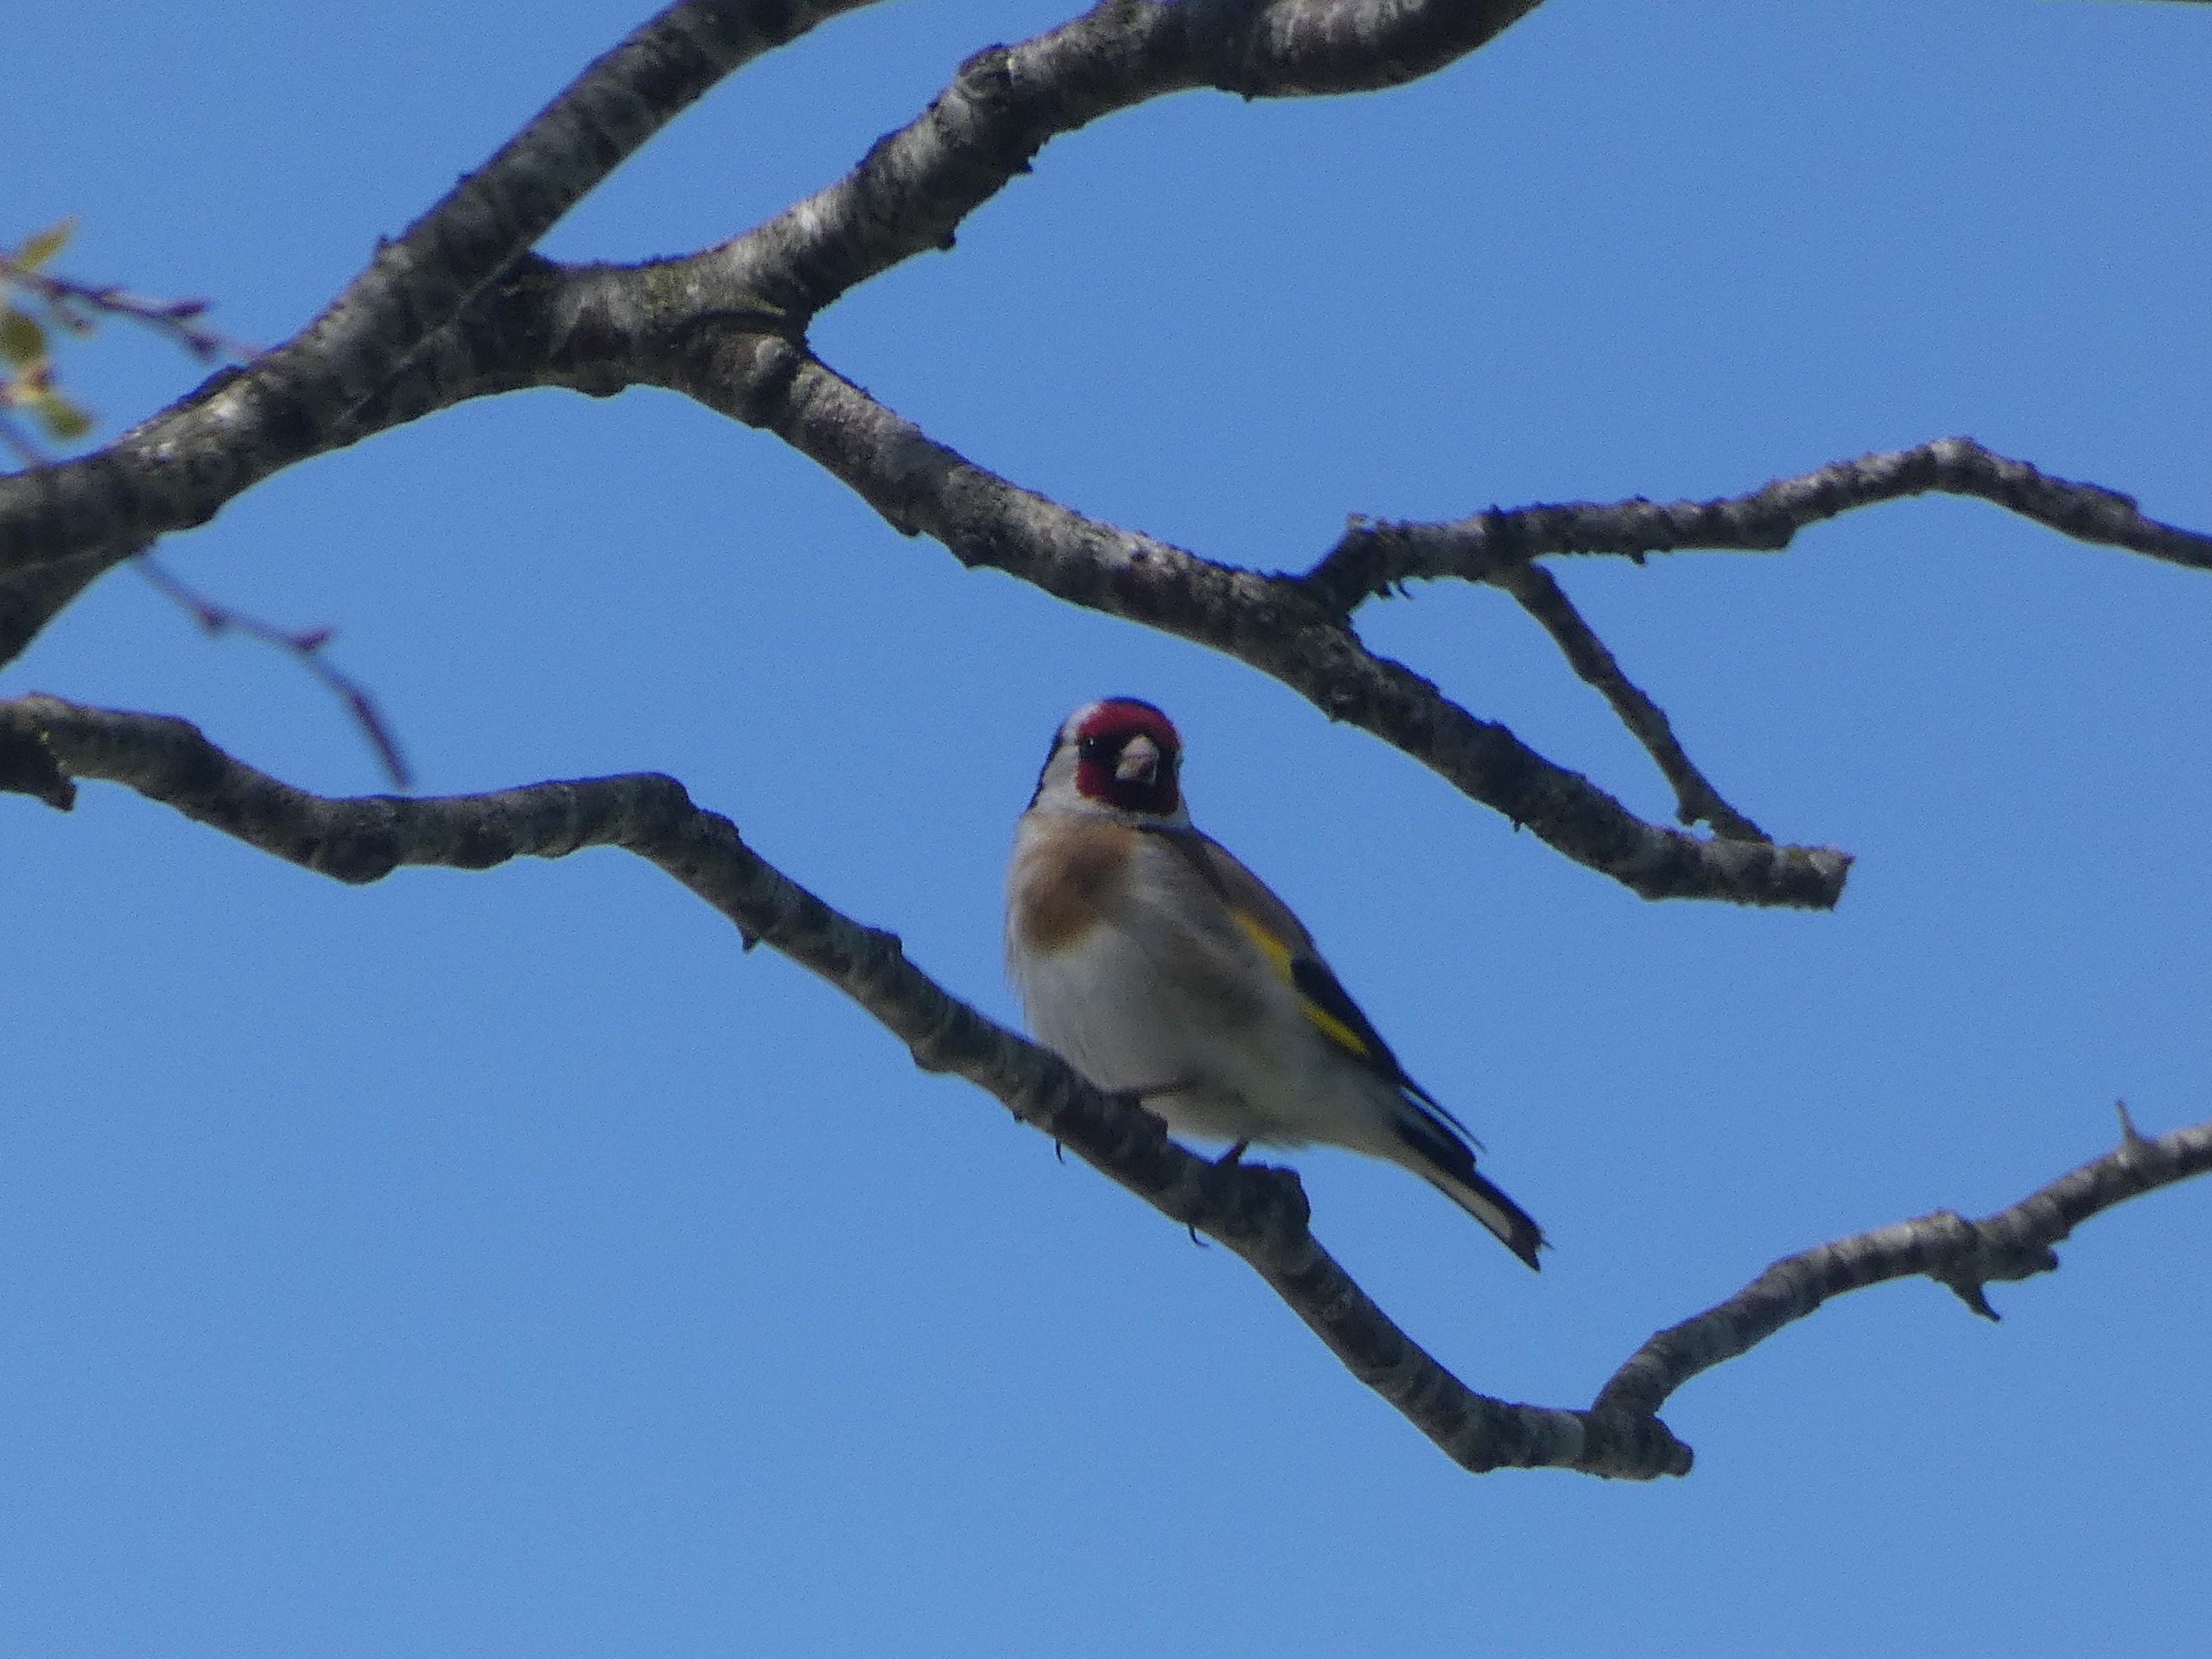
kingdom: Animalia
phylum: Chordata
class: Aves
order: Passeriformes
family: Fringillidae
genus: Carduelis
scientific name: Carduelis carduelis
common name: Stillits
